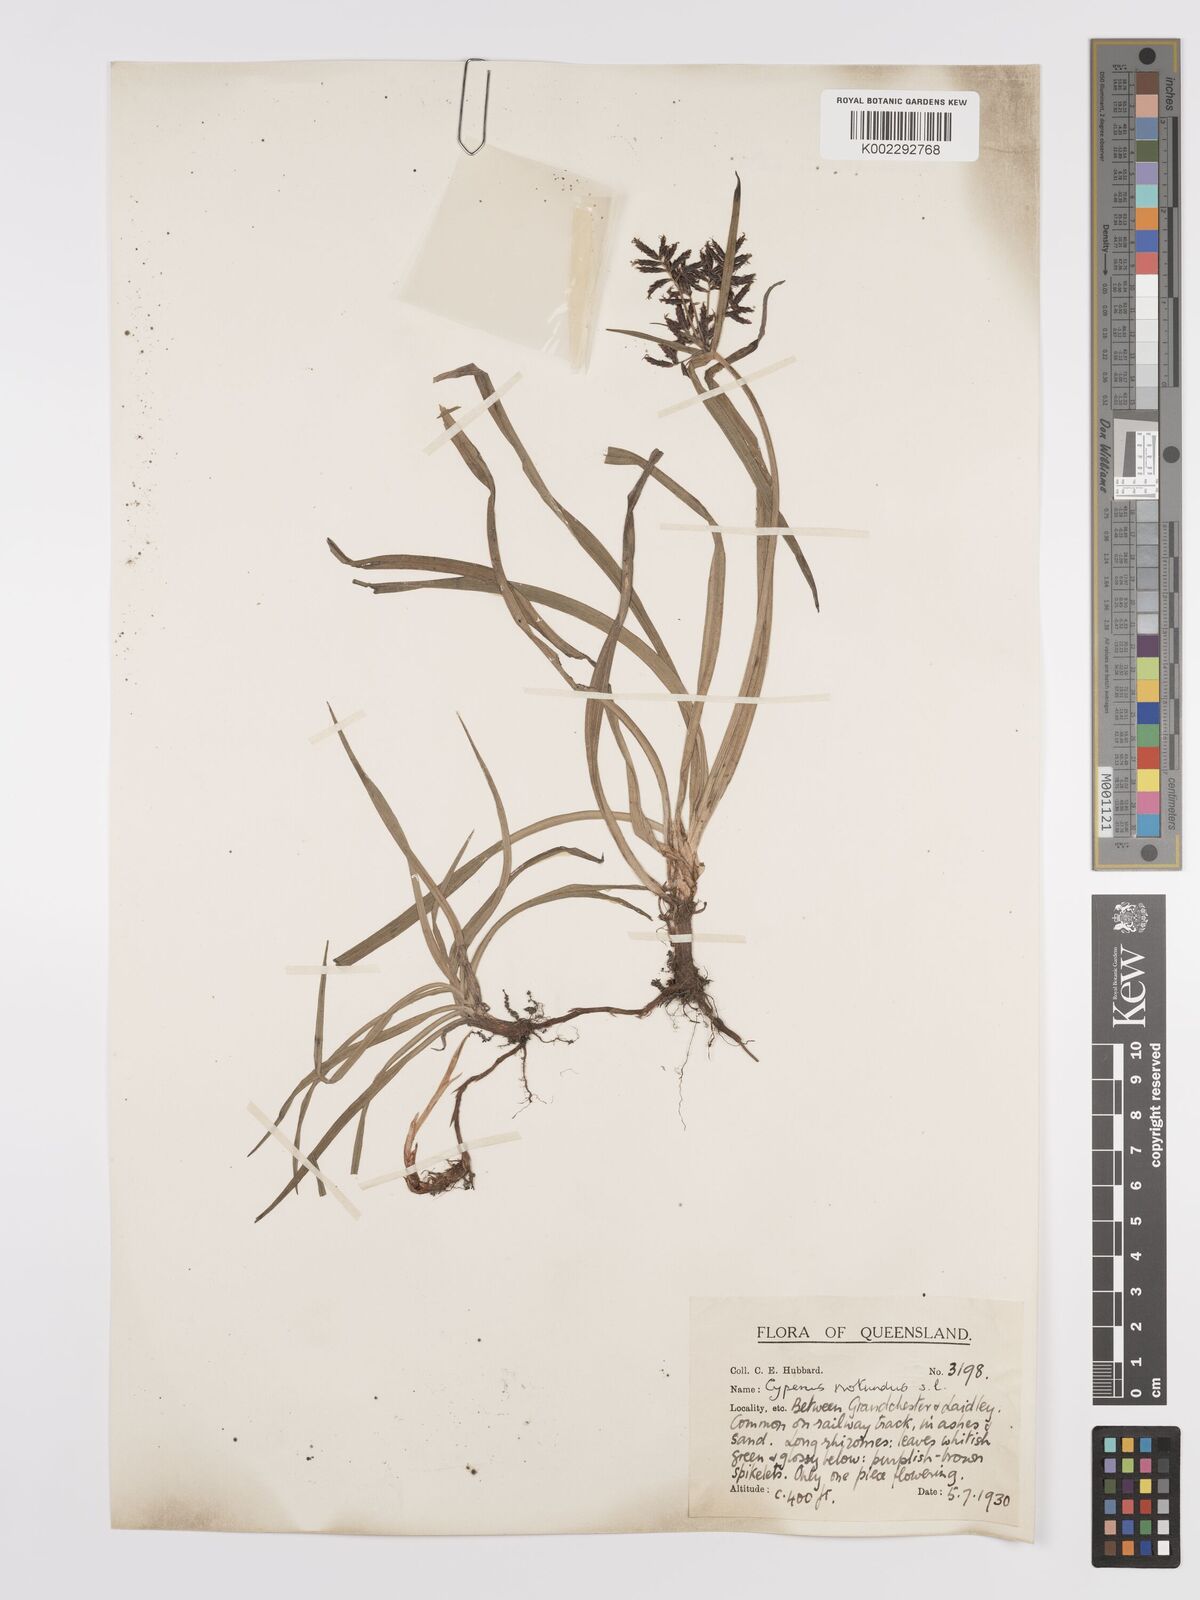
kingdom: Plantae
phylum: Tracheophyta
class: Liliopsida
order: Poales
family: Cyperaceae
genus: Cyperus
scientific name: Cyperus rotundus
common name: Nutgrass
